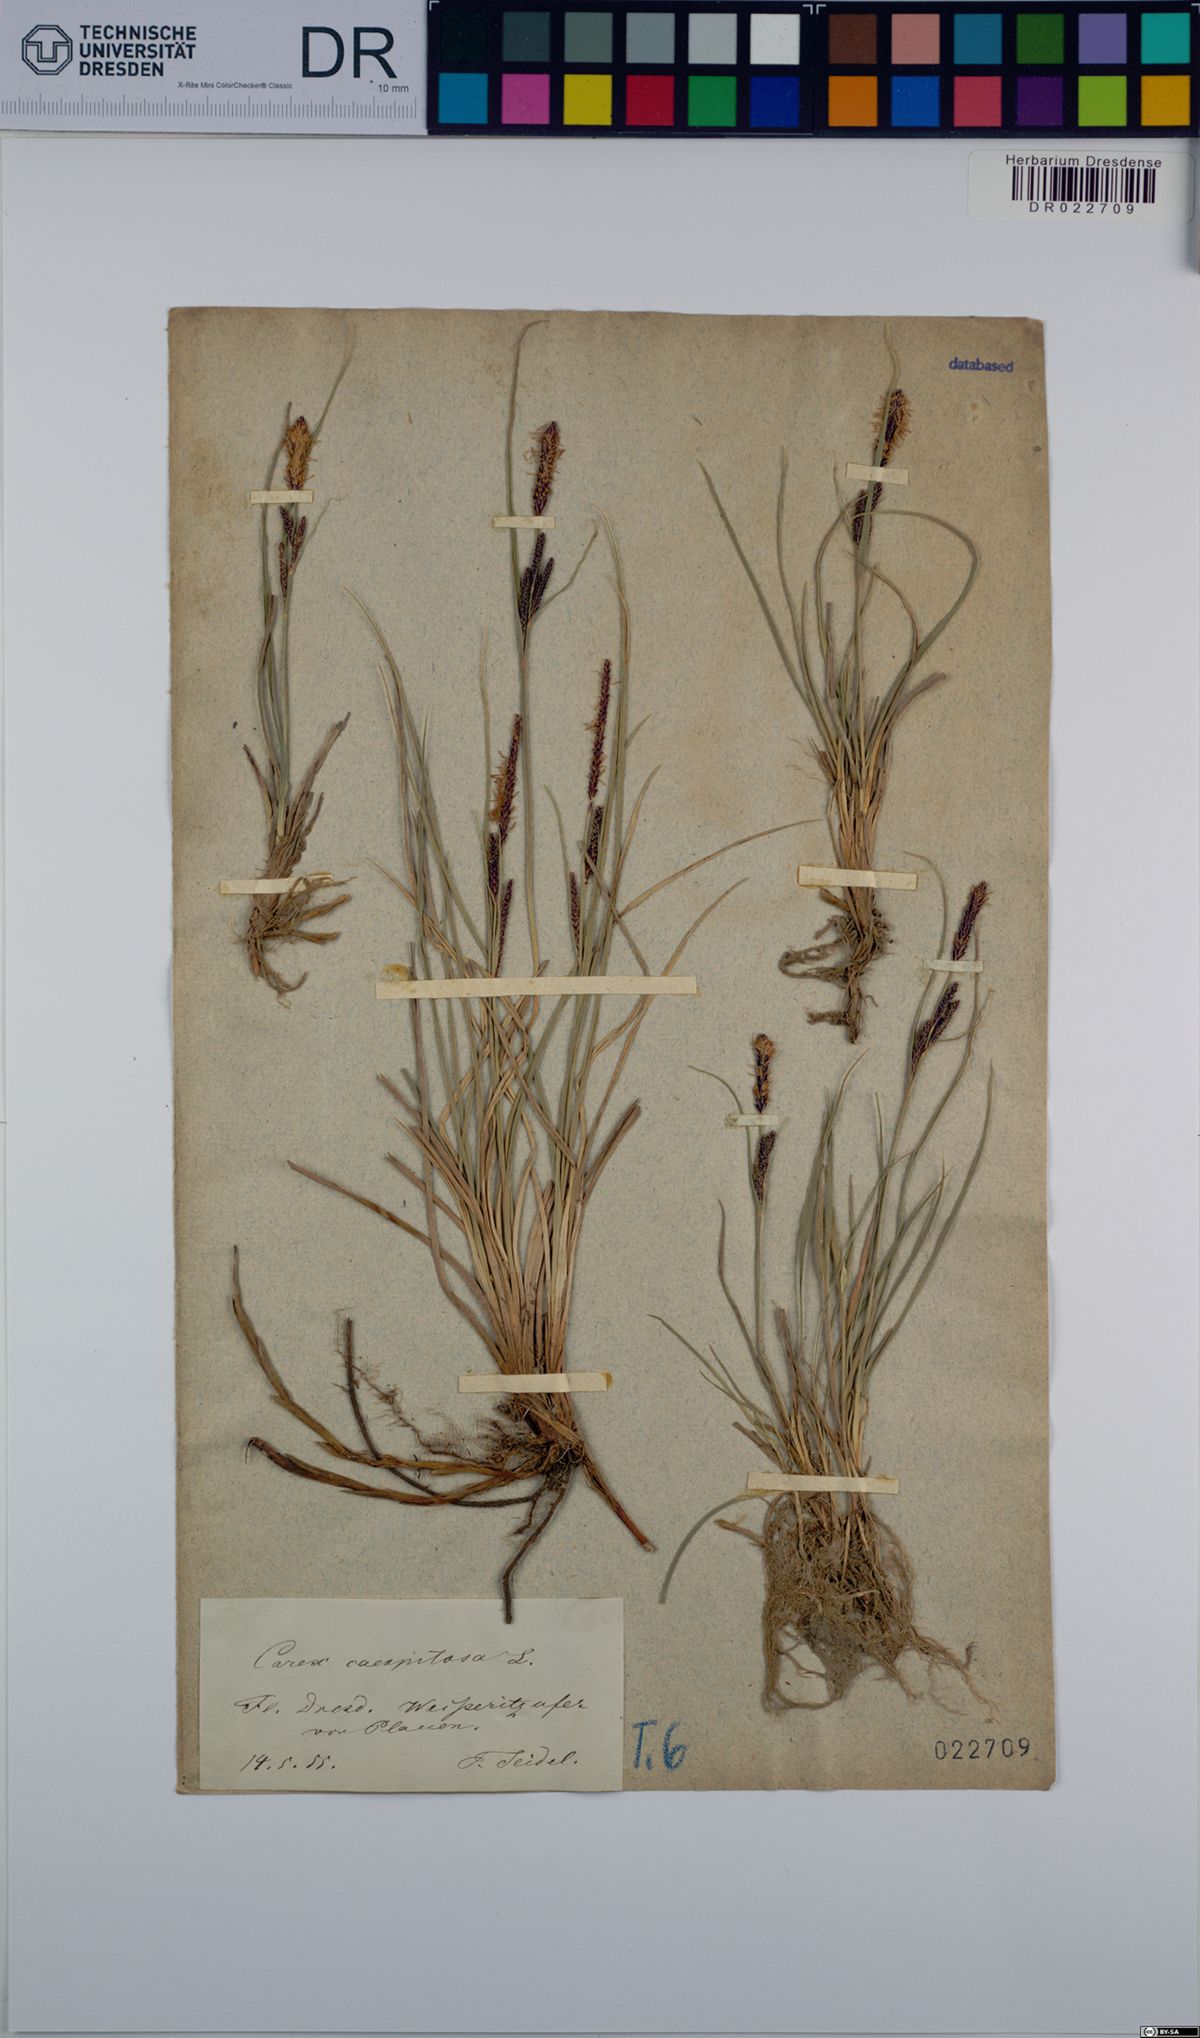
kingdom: Plantae
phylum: Tracheophyta
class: Liliopsida
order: Poales
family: Cyperaceae
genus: Carex
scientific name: Carex cespitosa
